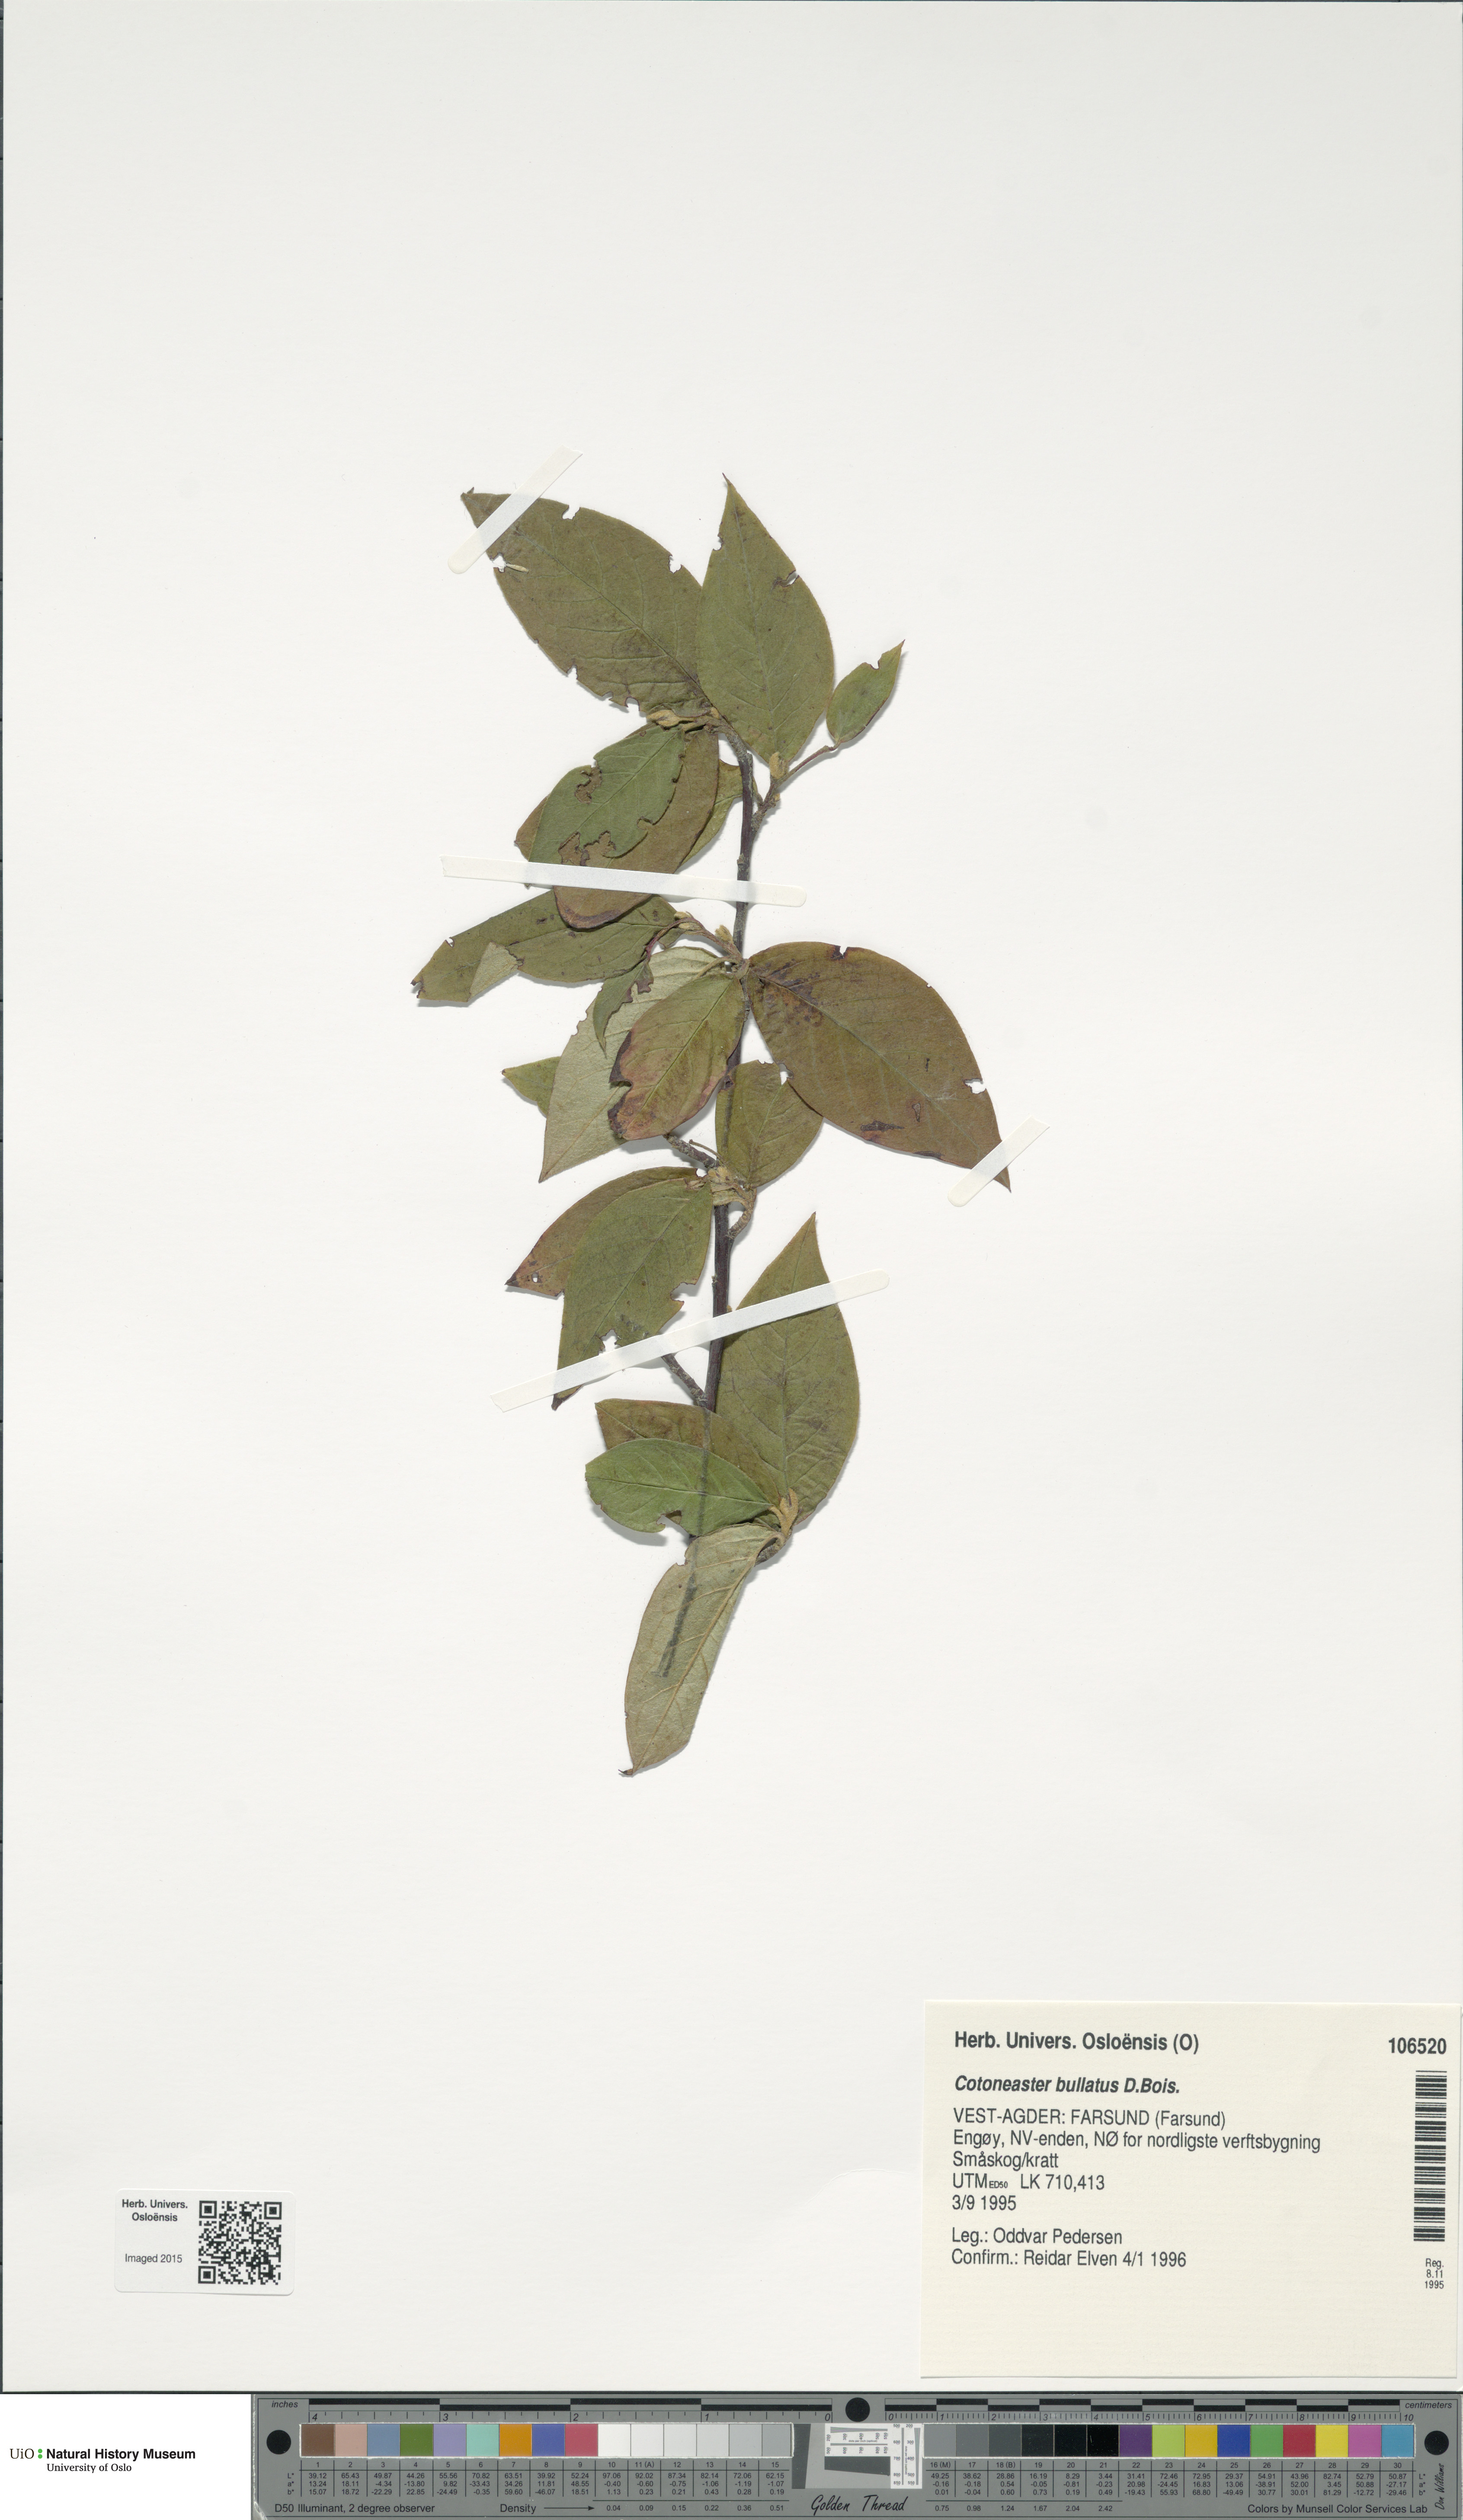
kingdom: Plantae
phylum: Tracheophyta
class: Magnoliopsida
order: Rosales
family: Rosaceae
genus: Cotoneaster
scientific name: Cotoneaster bullatus
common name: Hollyberry cotoneaster
